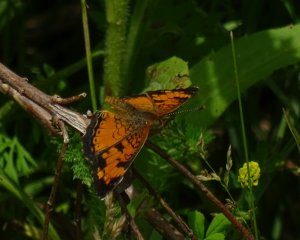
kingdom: Animalia
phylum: Arthropoda
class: Insecta
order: Lepidoptera
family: Nymphalidae
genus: Phyciodes
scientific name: Phyciodes tharos
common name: Northern Crescent
